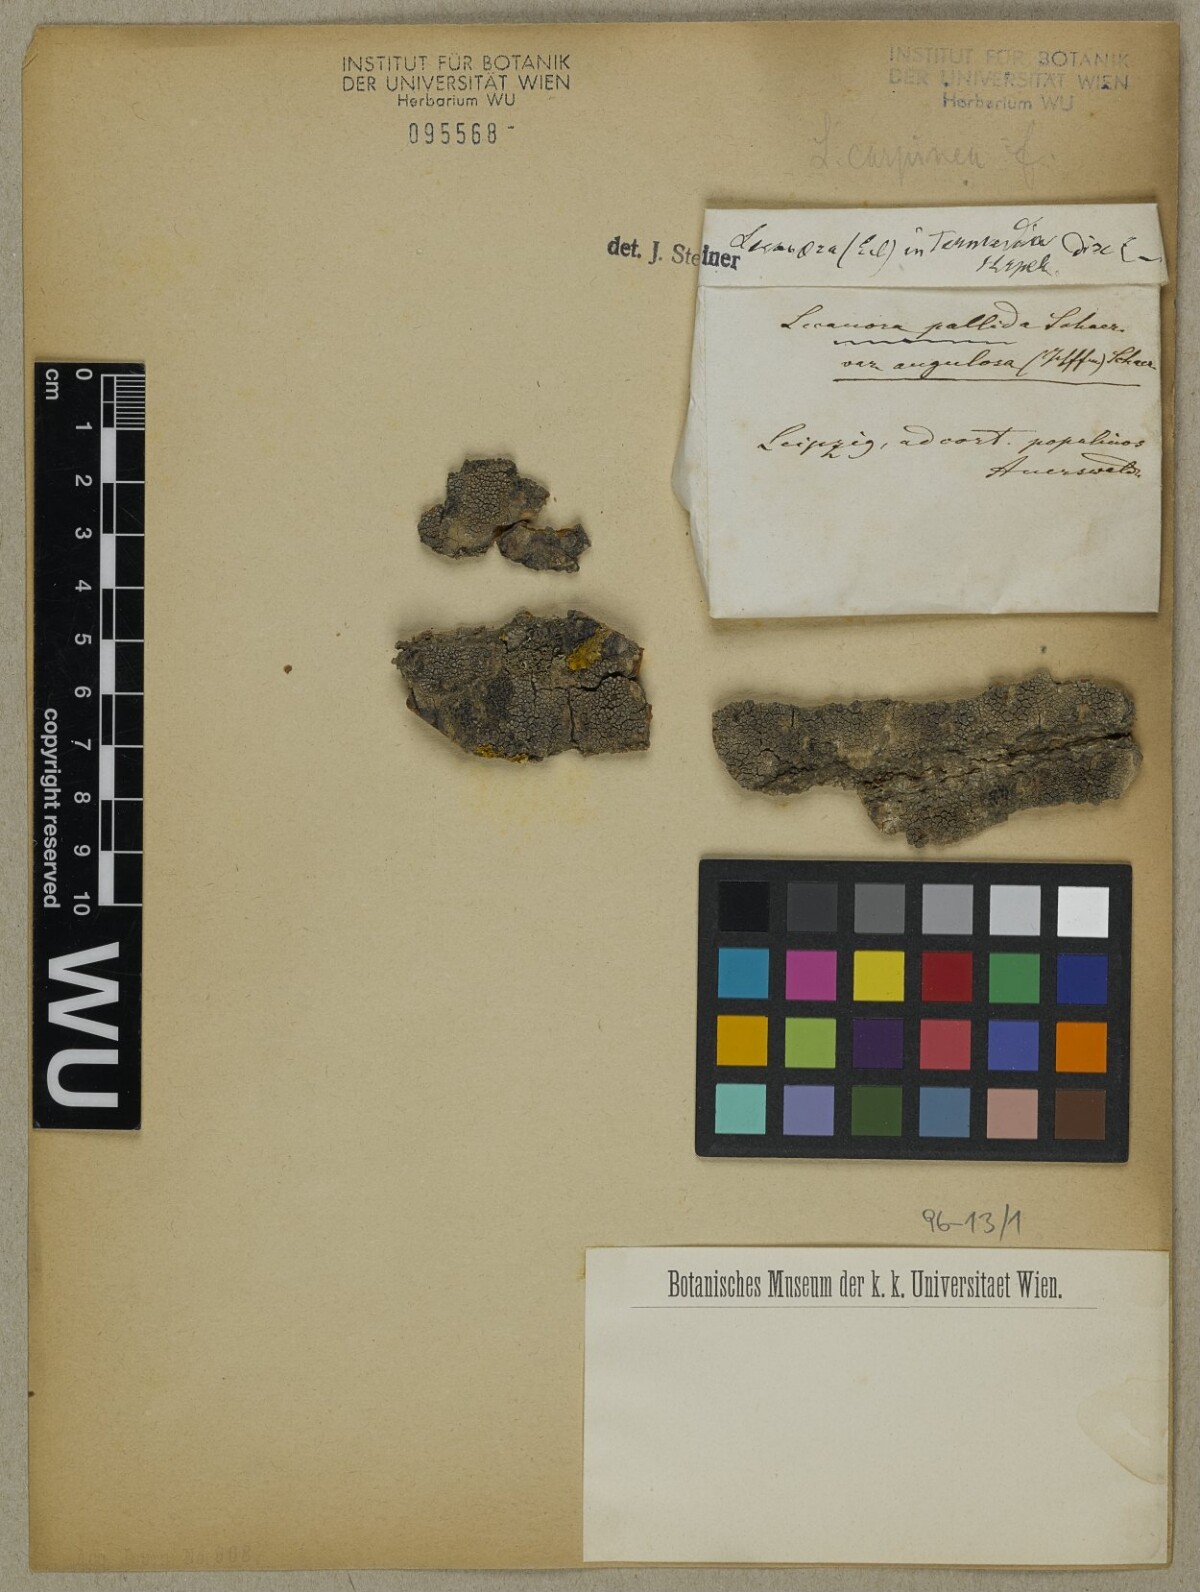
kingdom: Fungi
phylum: Ascomycota
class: Lecanoromycetes
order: Lecanorales
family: Lecanoraceae
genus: Lecanora
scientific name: Lecanora
